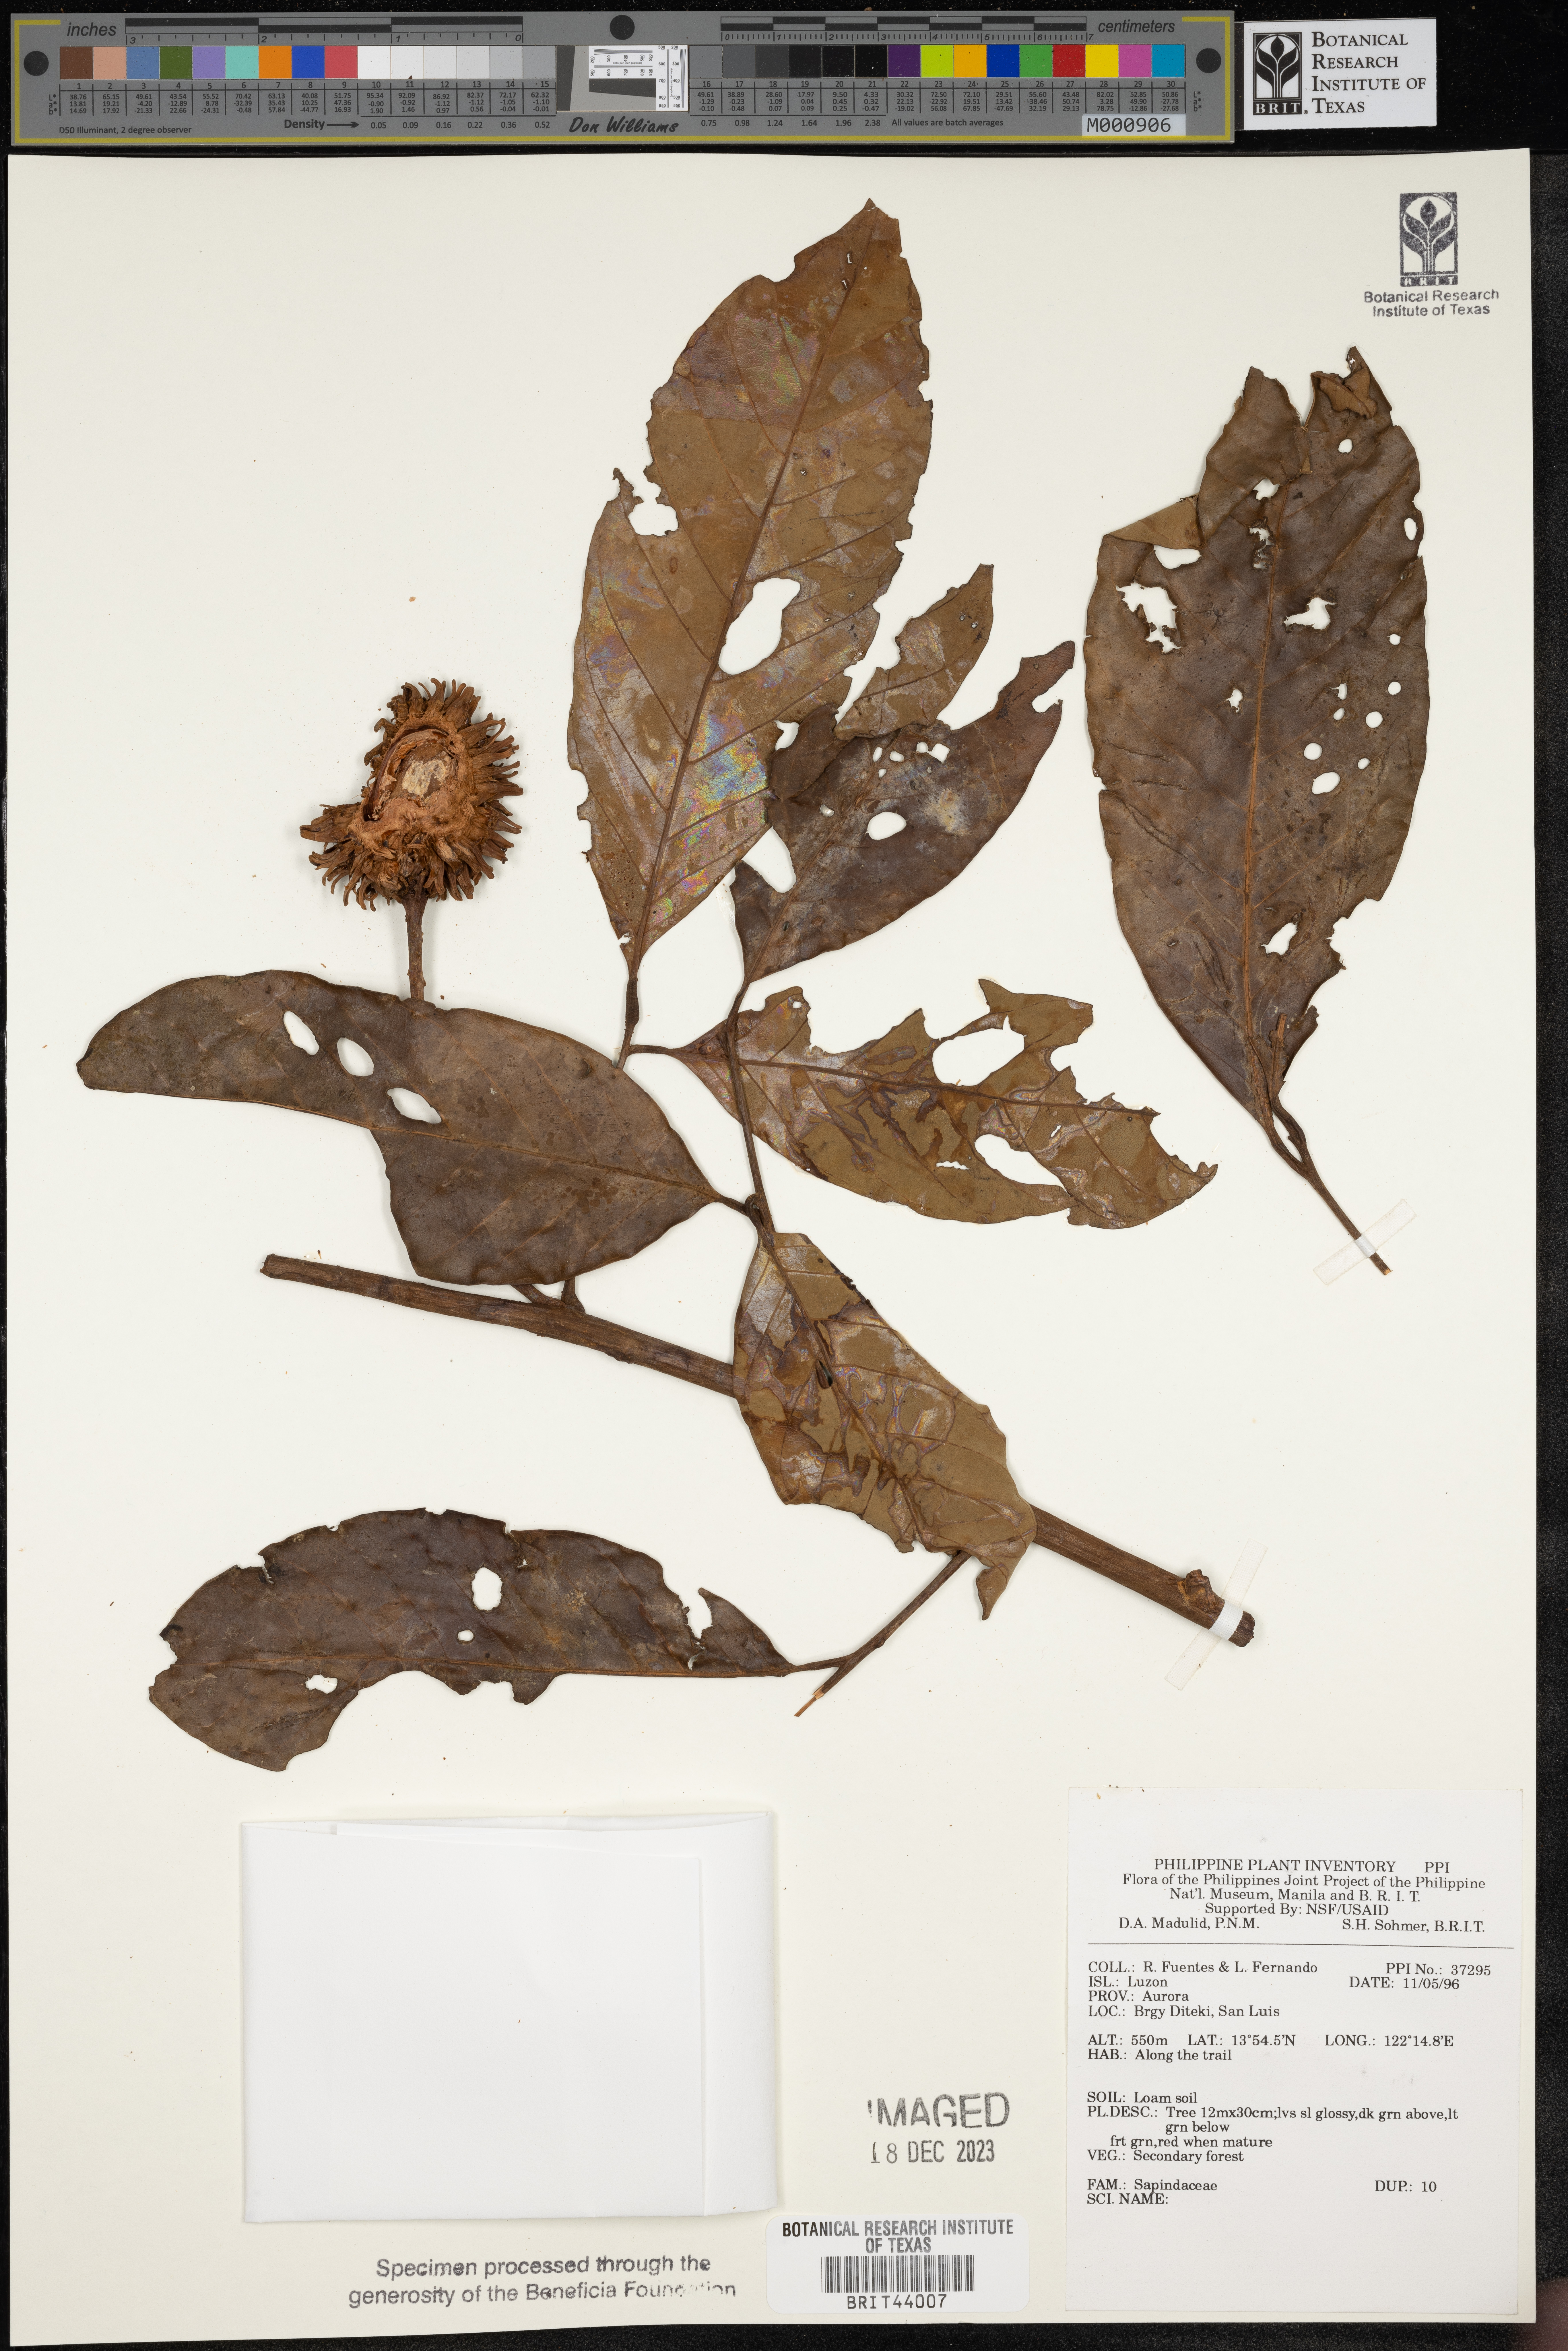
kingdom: Plantae
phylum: Tracheophyta
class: Magnoliopsida
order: Sapindales
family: Sapindaceae
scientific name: Sapindaceae
